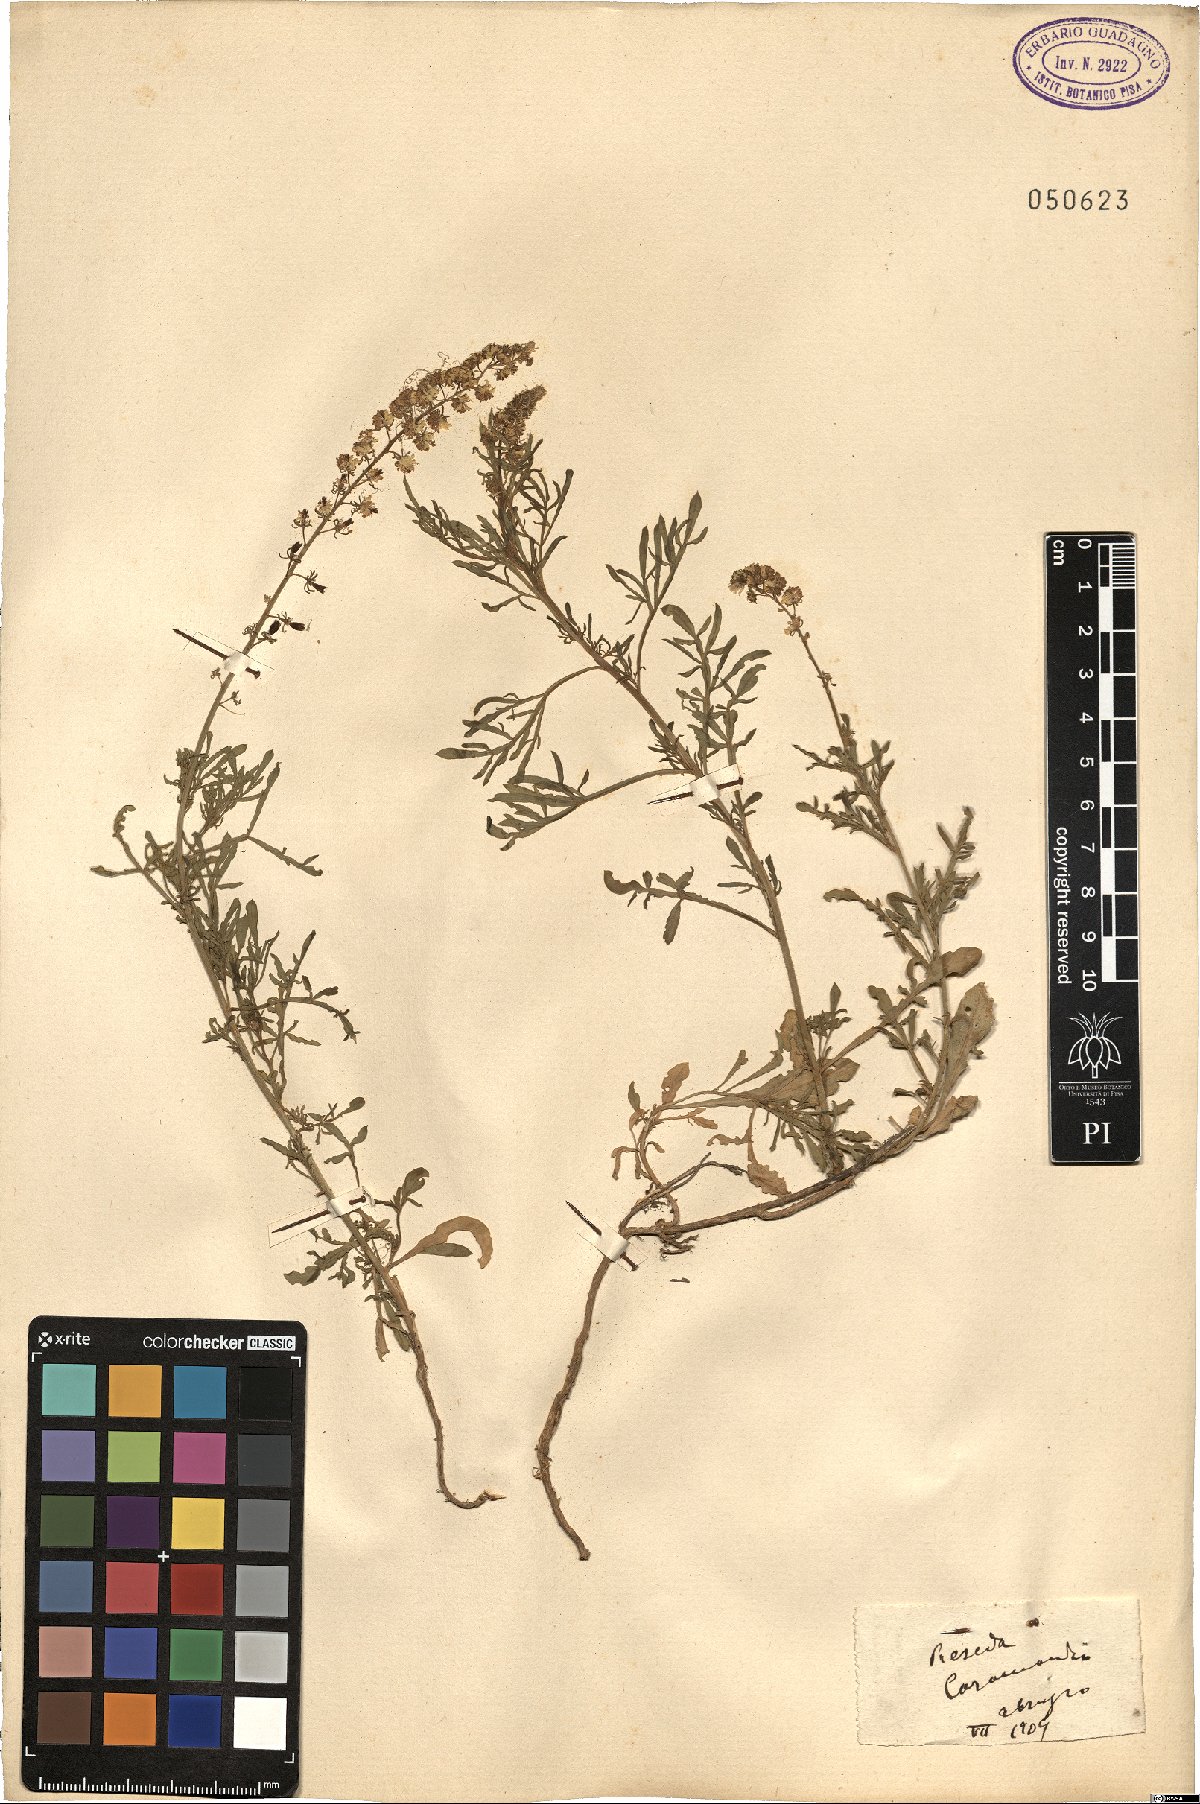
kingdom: Plantae
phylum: Tracheophyta
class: Magnoliopsida
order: Brassicales
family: Resedaceae
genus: Reseda
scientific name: Reseda
